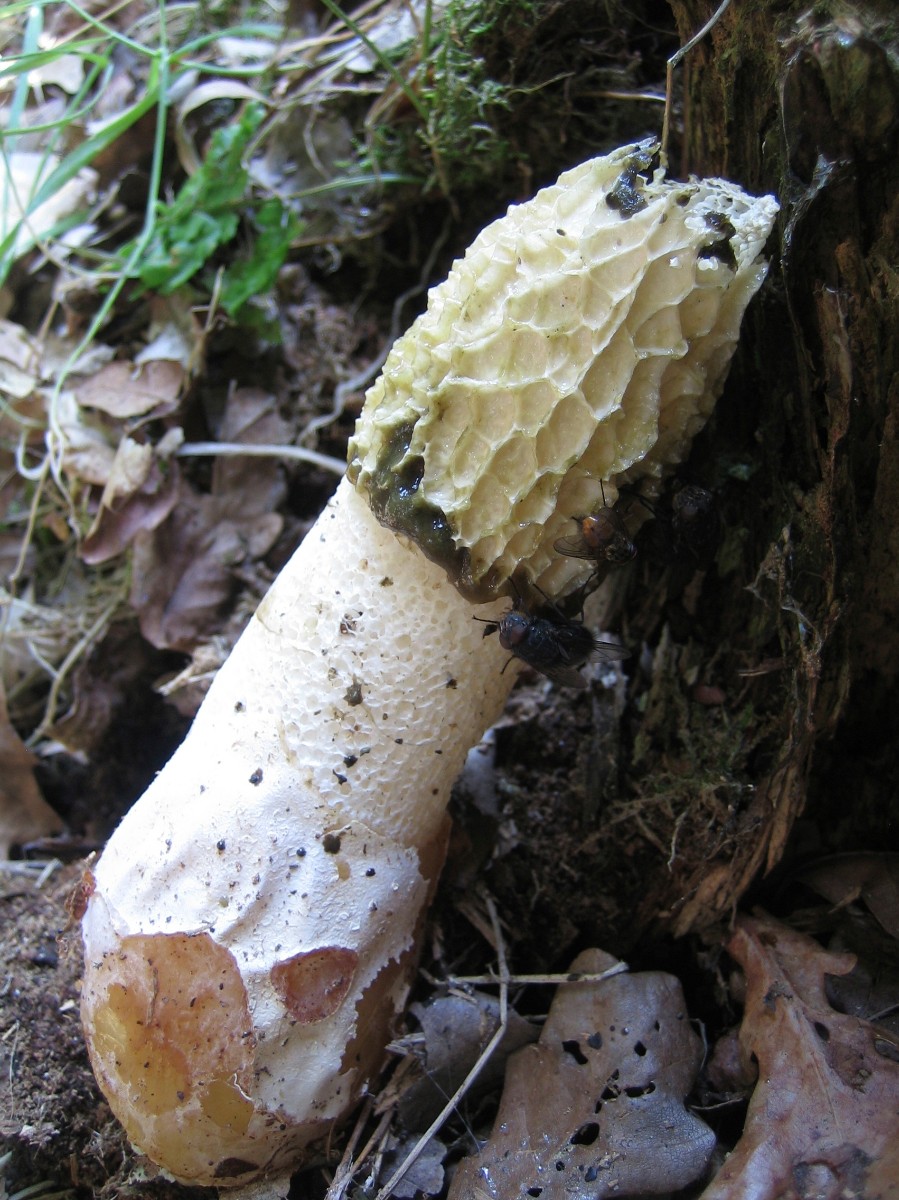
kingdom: Fungi
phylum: Basidiomycota
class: Agaricomycetes
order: Phallales
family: Phallaceae
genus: Phallus
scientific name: Phallus impudicus
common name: almindelig stinksvamp
